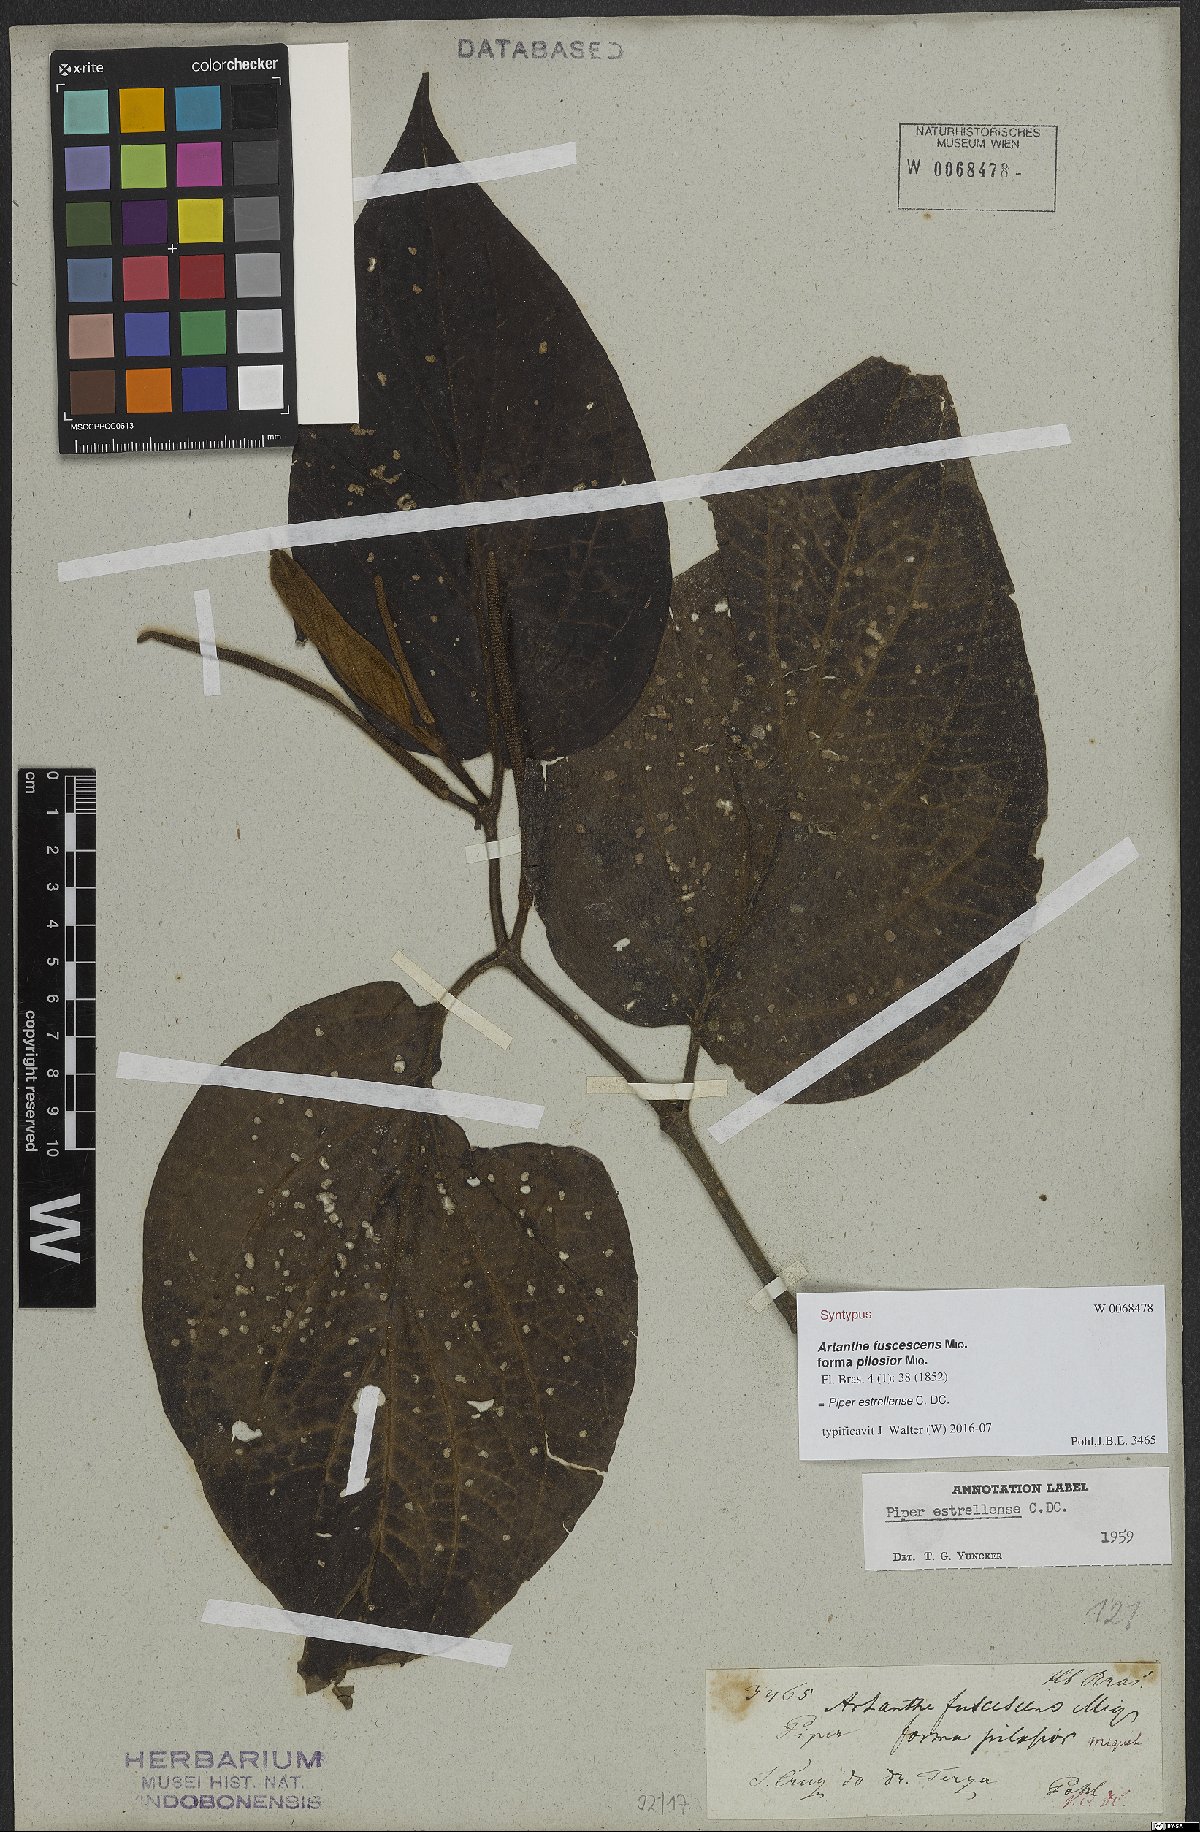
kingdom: Plantae
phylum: Tracheophyta
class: Magnoliopsida
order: Piperales
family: Piperaceae
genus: Piper
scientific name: Piper tectoniifolium
